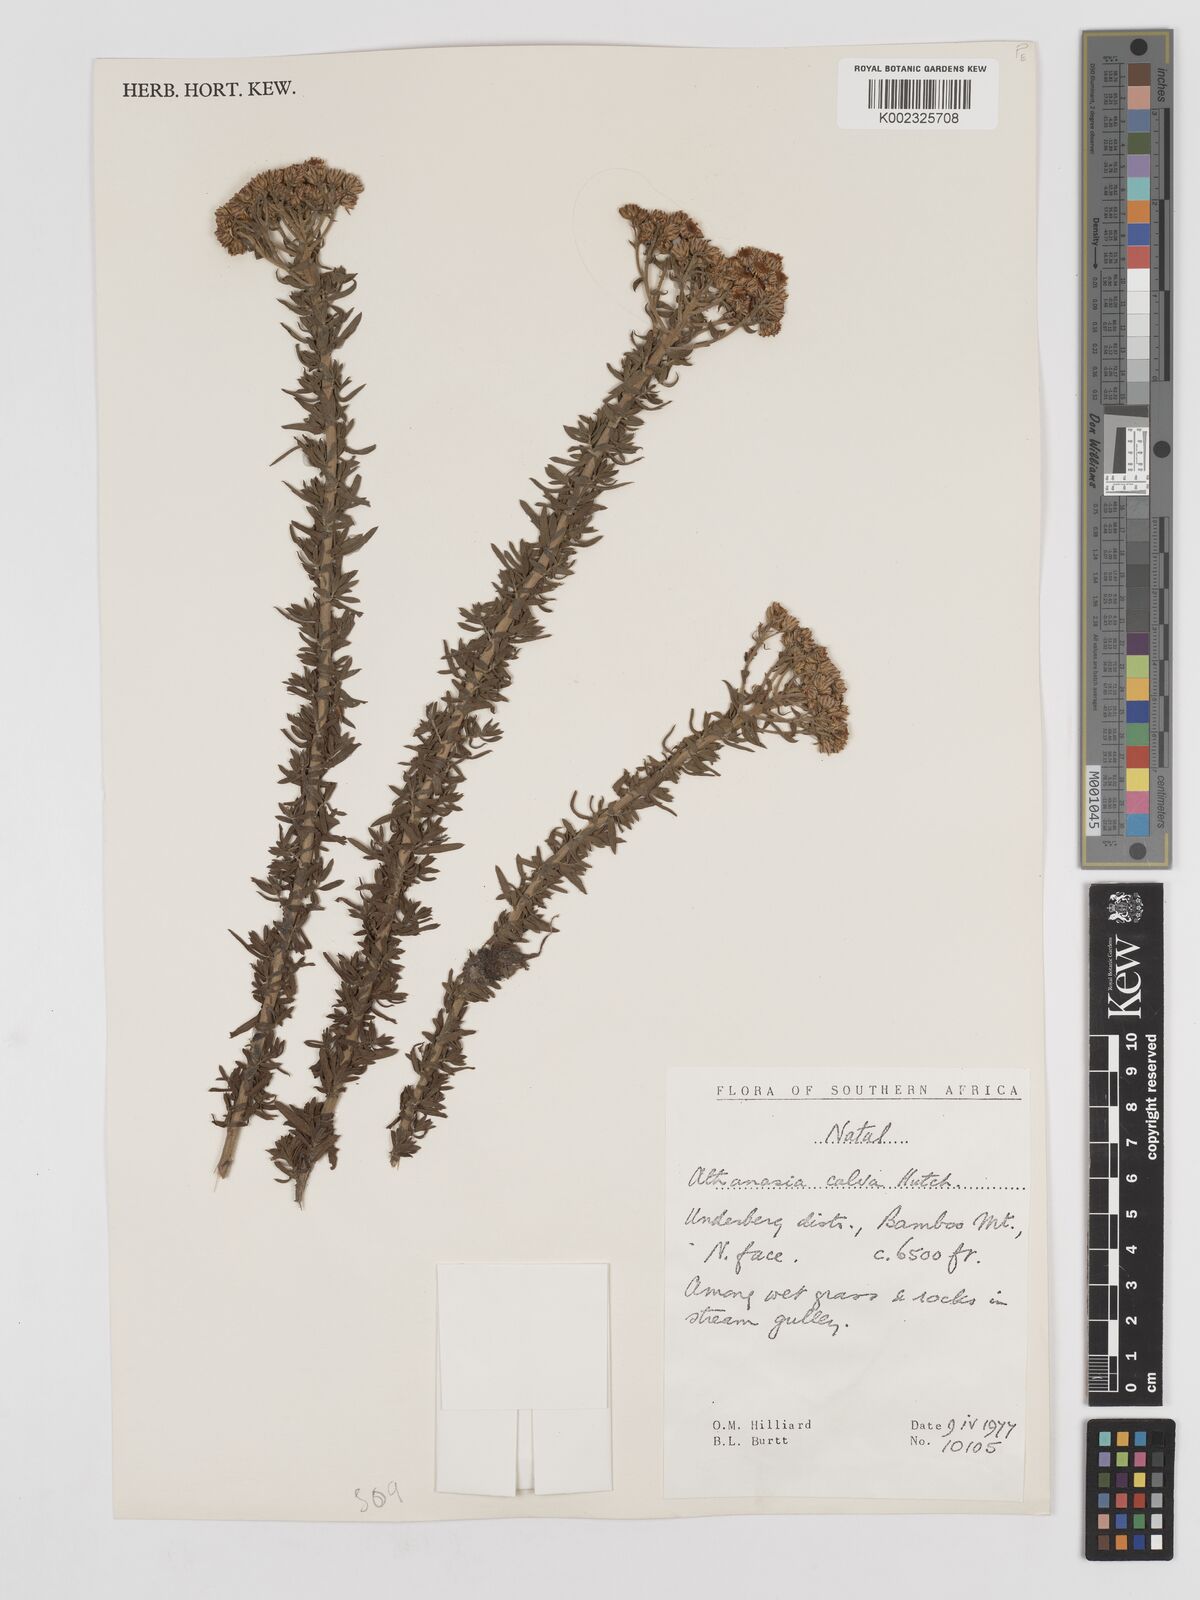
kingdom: Plantae
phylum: Tracheophyta
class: Magnoliopsida
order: Asterales
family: Asteraceae
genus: Inulanthera
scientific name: Inulanthera dregeana
